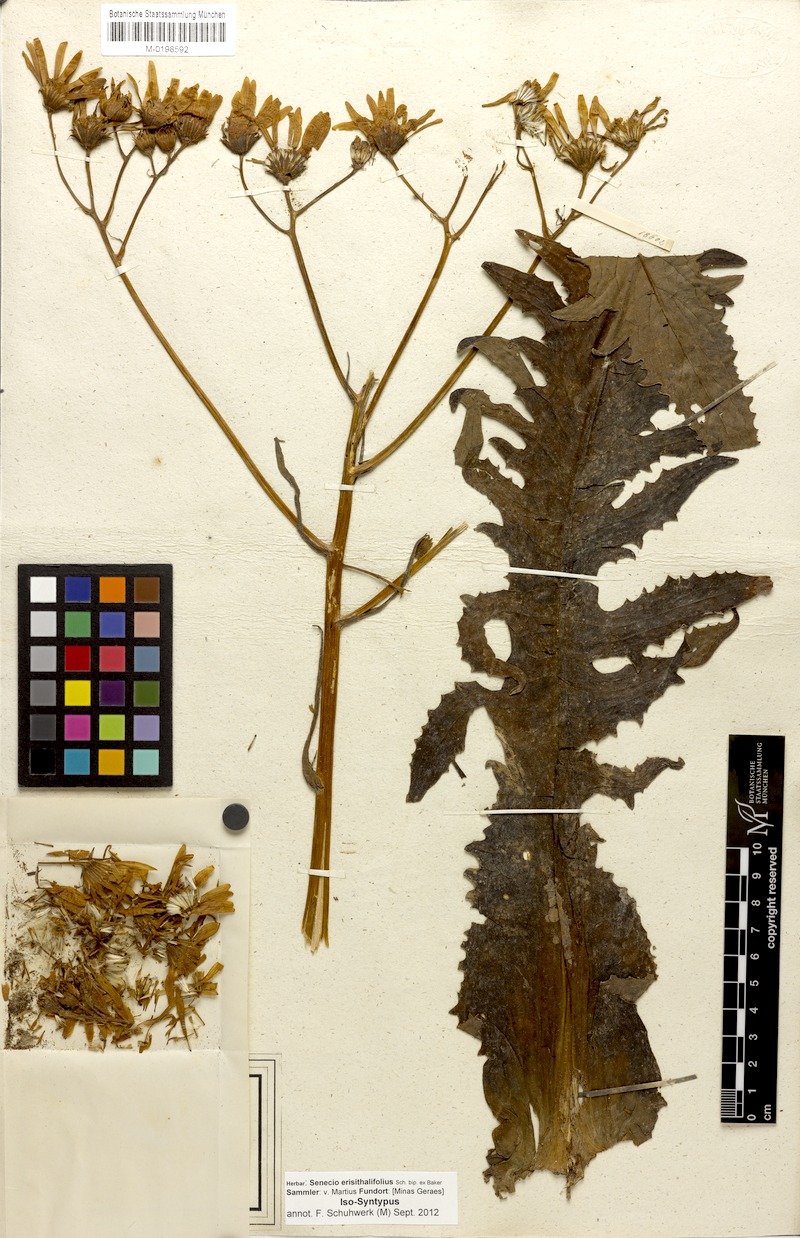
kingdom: Plantae
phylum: Tracheophyta
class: Magnoliopsida
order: Asterales
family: Asteraceae
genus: Senecio
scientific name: Senecio erisithalifolius
